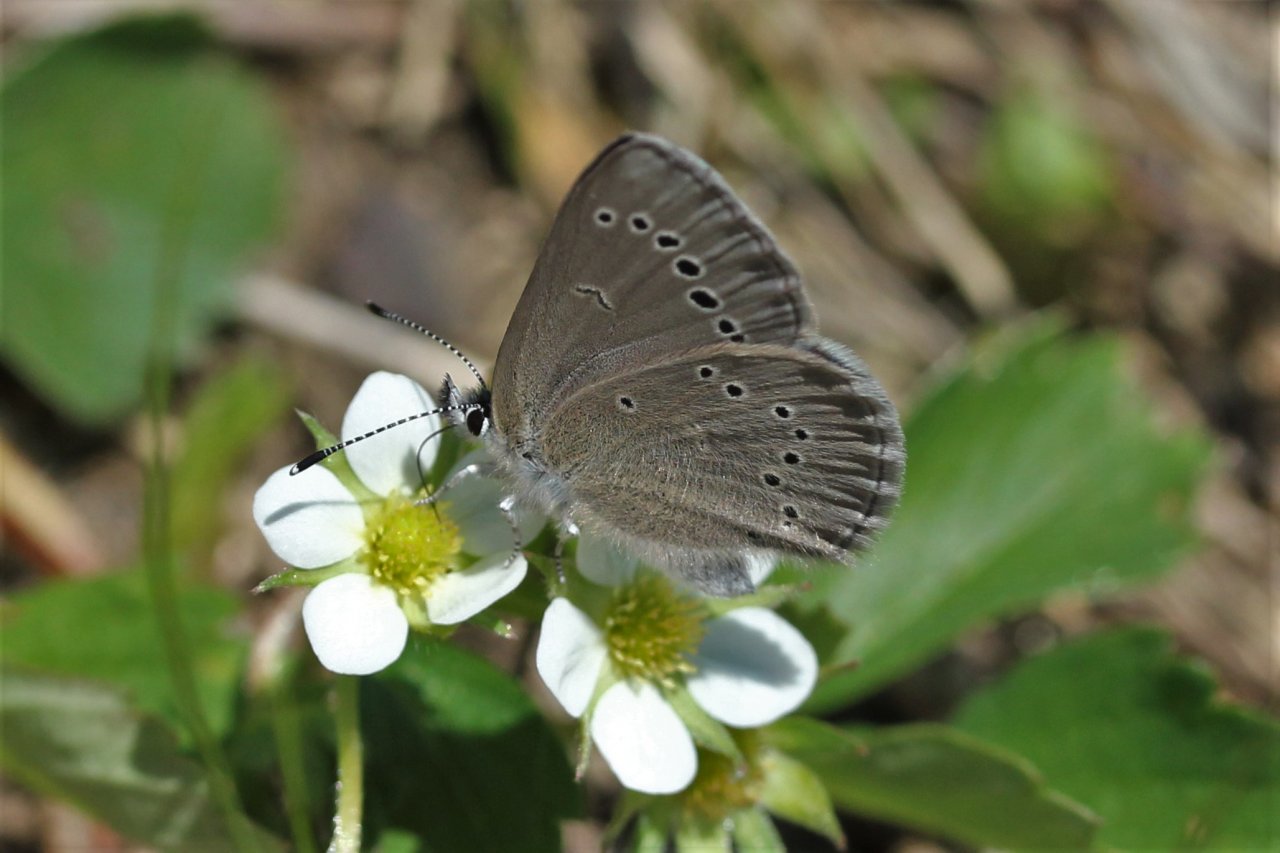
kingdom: Animalia
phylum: Arthropoda
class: Insecta
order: Lepidoptera
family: Lycaenidae
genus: Glaucopsyche
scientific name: Glaucopsyche lygdamus
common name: Silvery Blue
